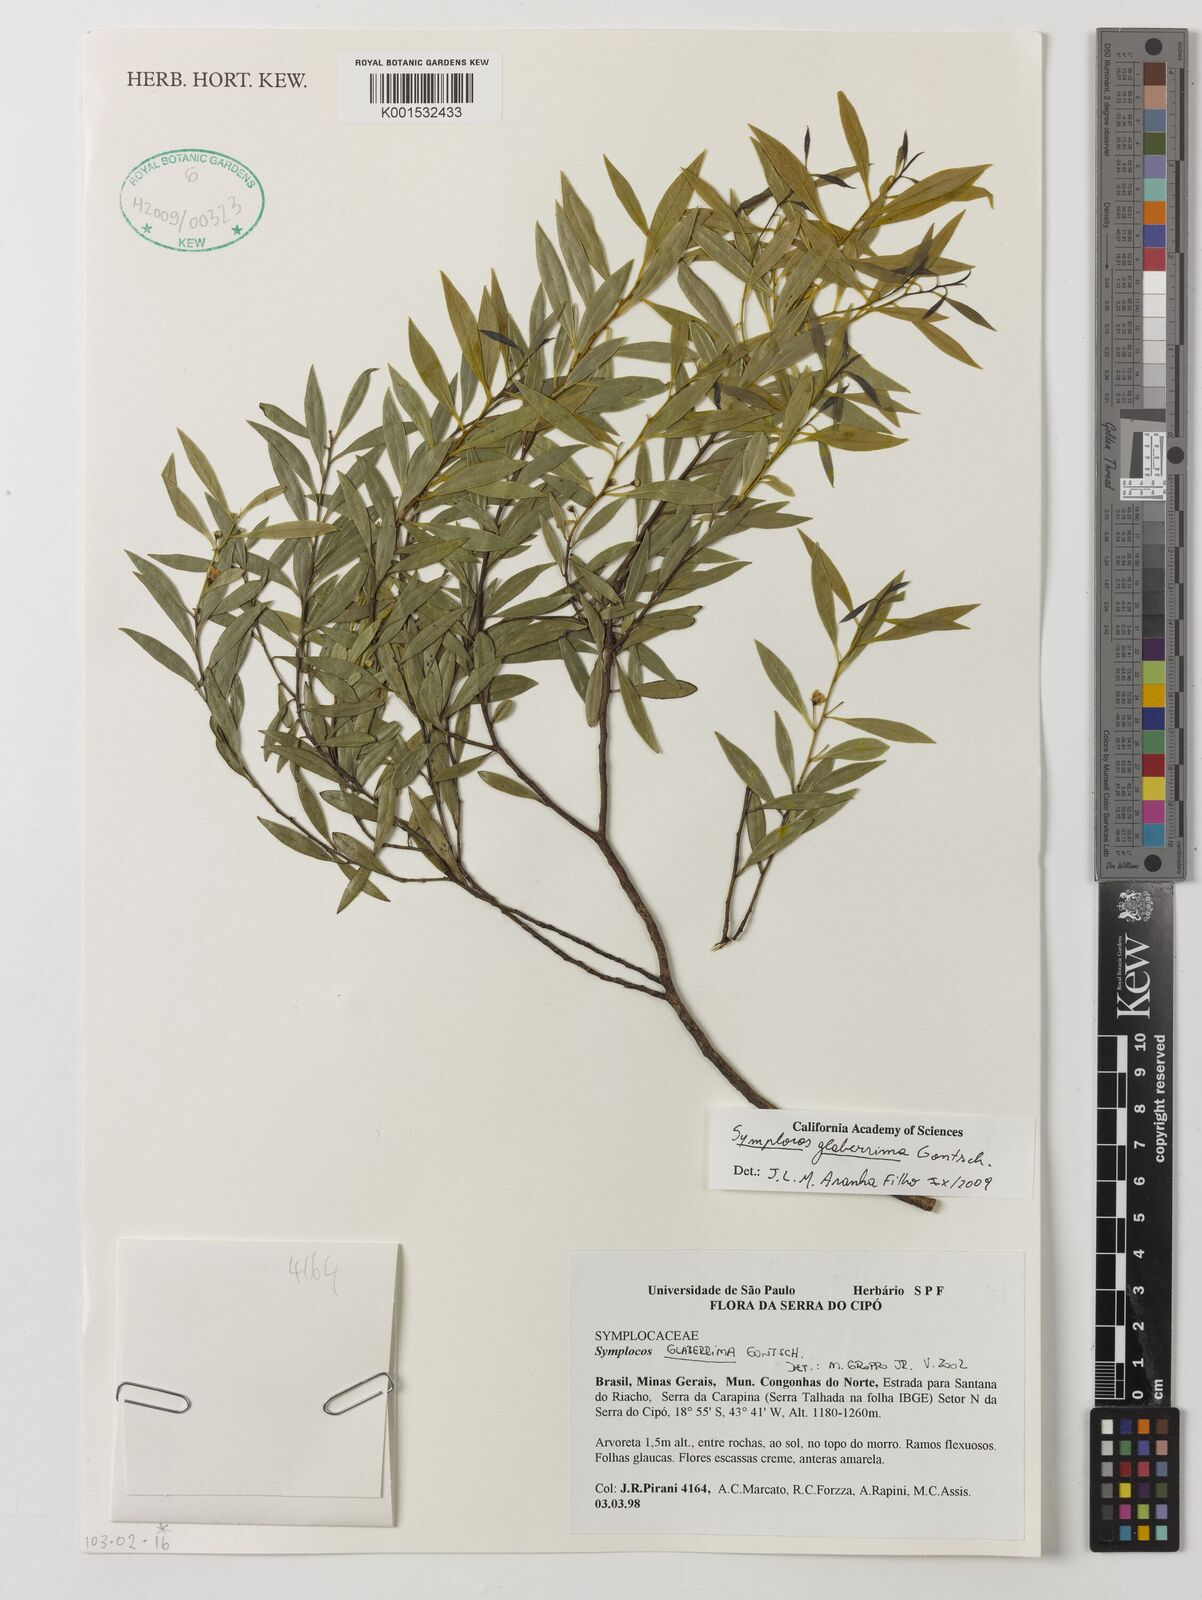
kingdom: Plantae
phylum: Tracheophyta
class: Magnoliopsida
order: Ericales
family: Symplocaceae
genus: Symplocos
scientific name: Symplocos glaberrima
